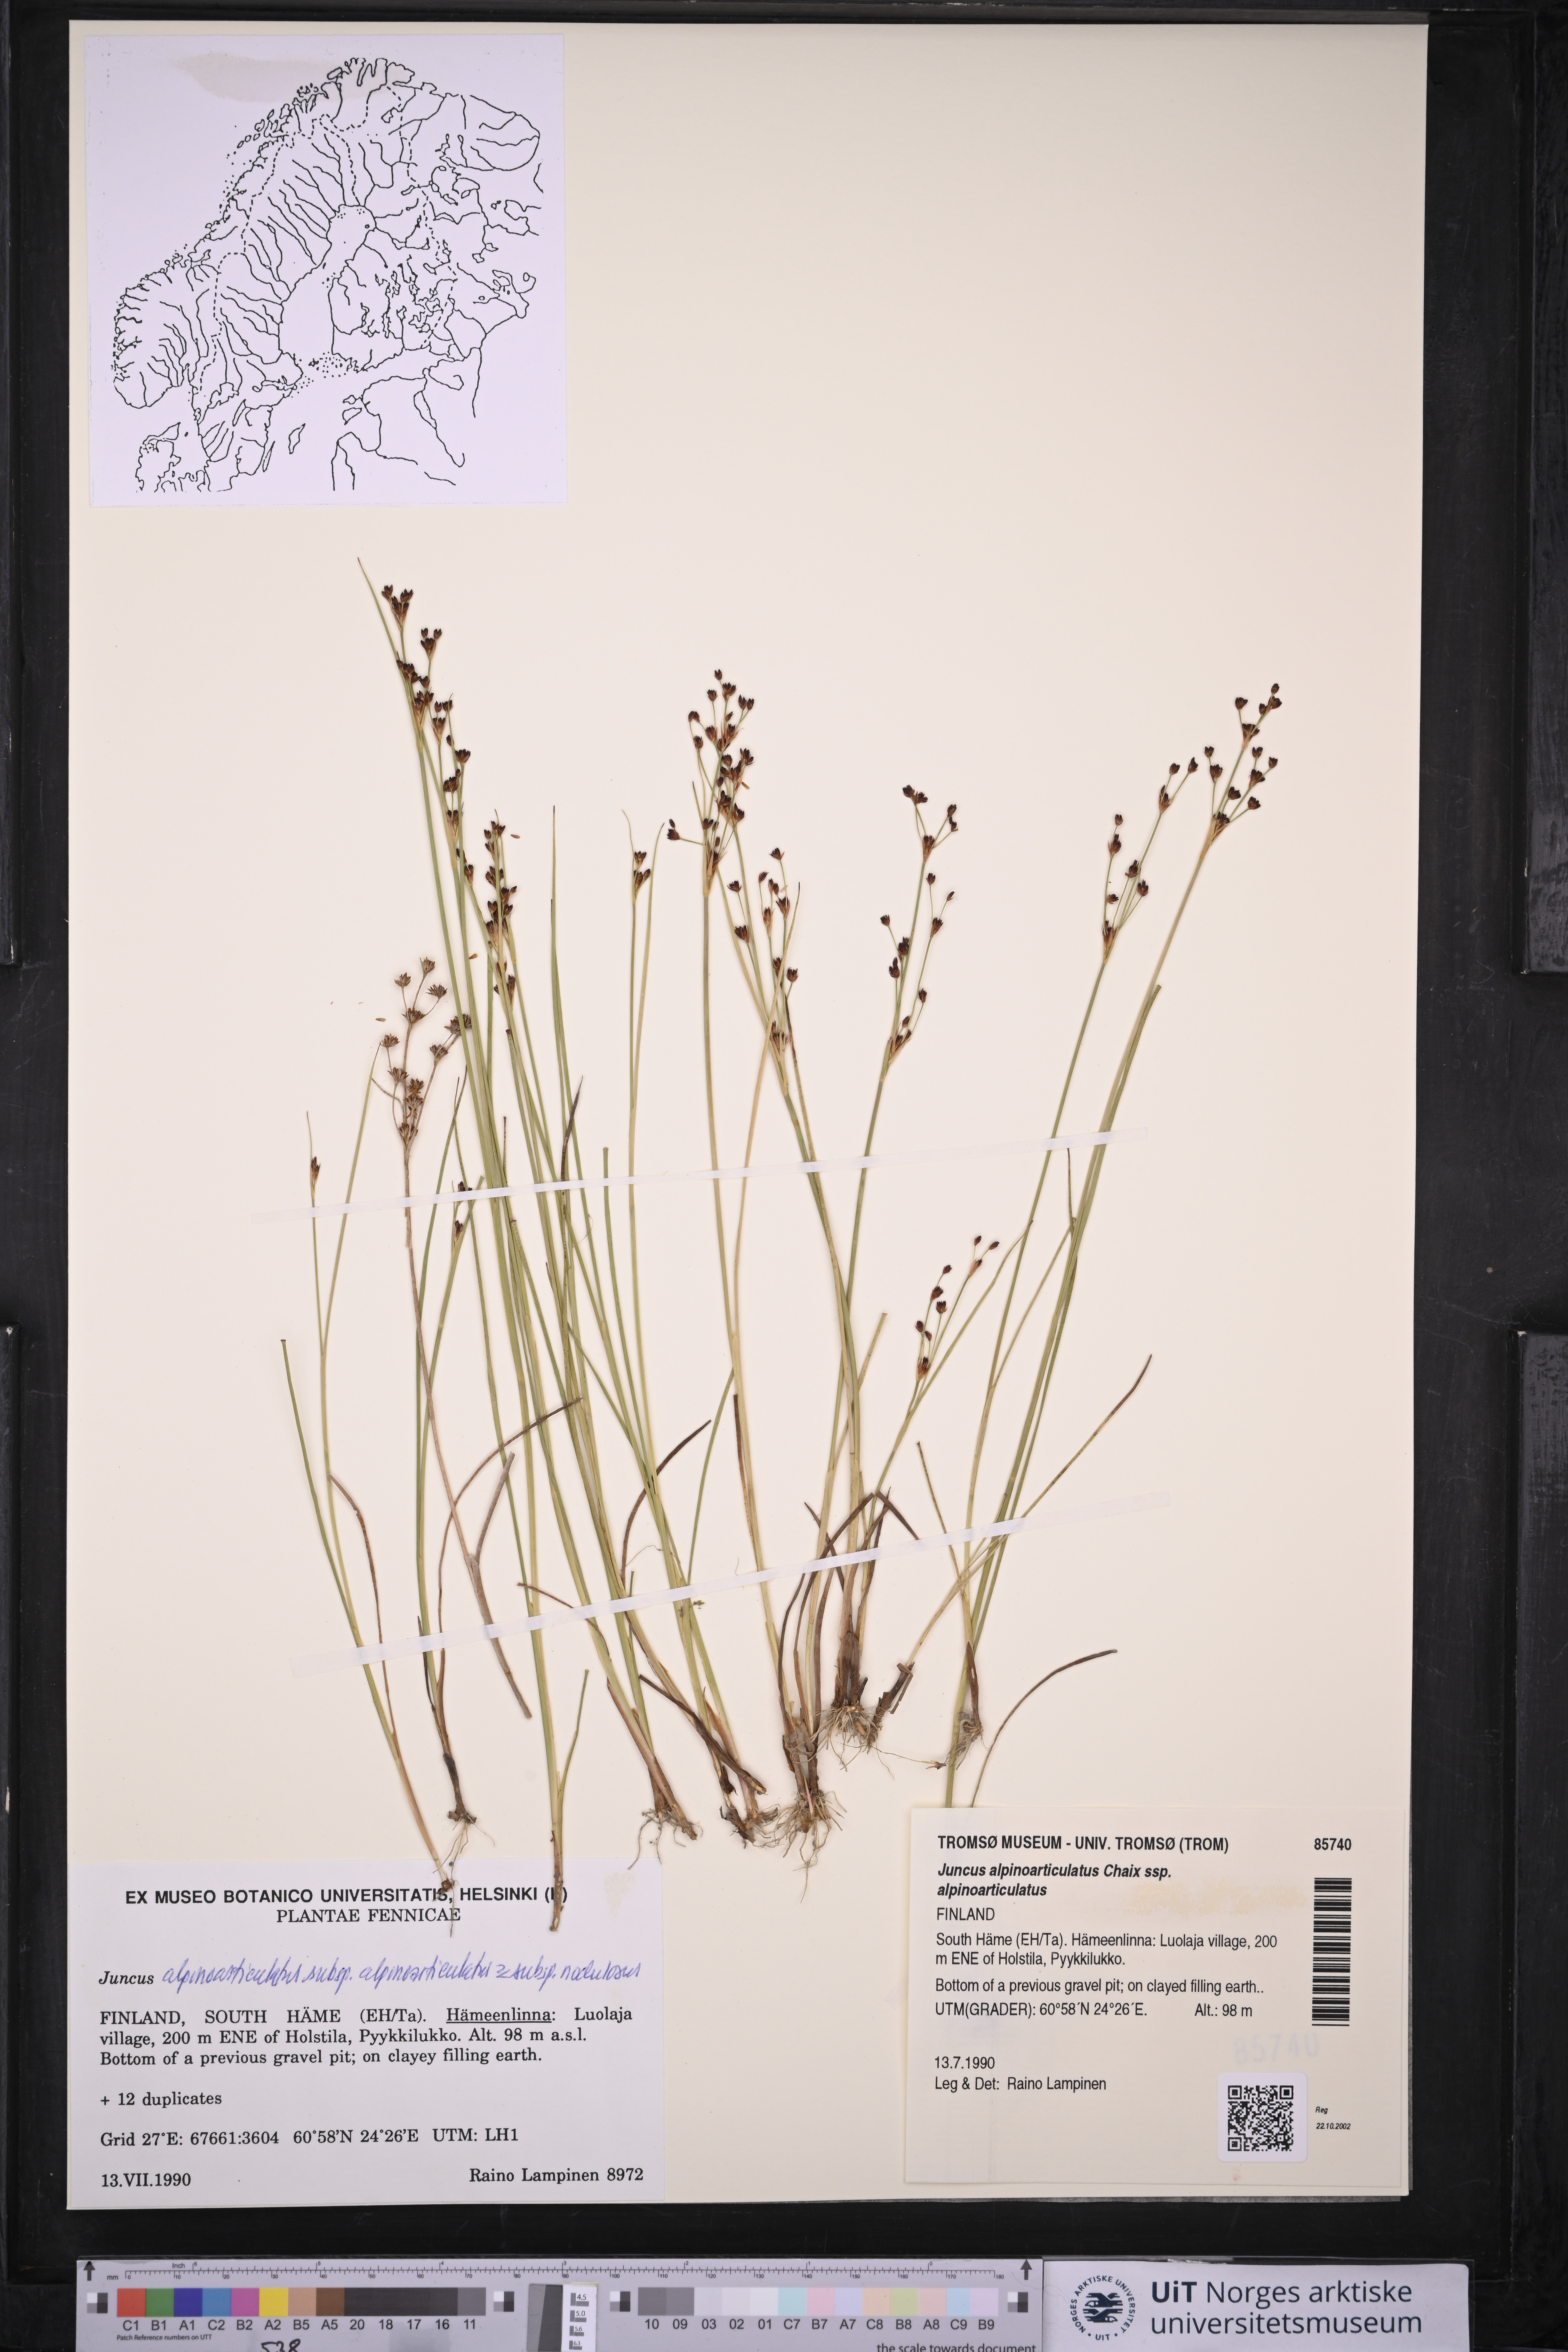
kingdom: Plantae
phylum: Tracheophyta
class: Liliopsida
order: Poales
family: Juncaceae
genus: Juncus
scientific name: Juncus alpinoarticulatus
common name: Alpine rush
